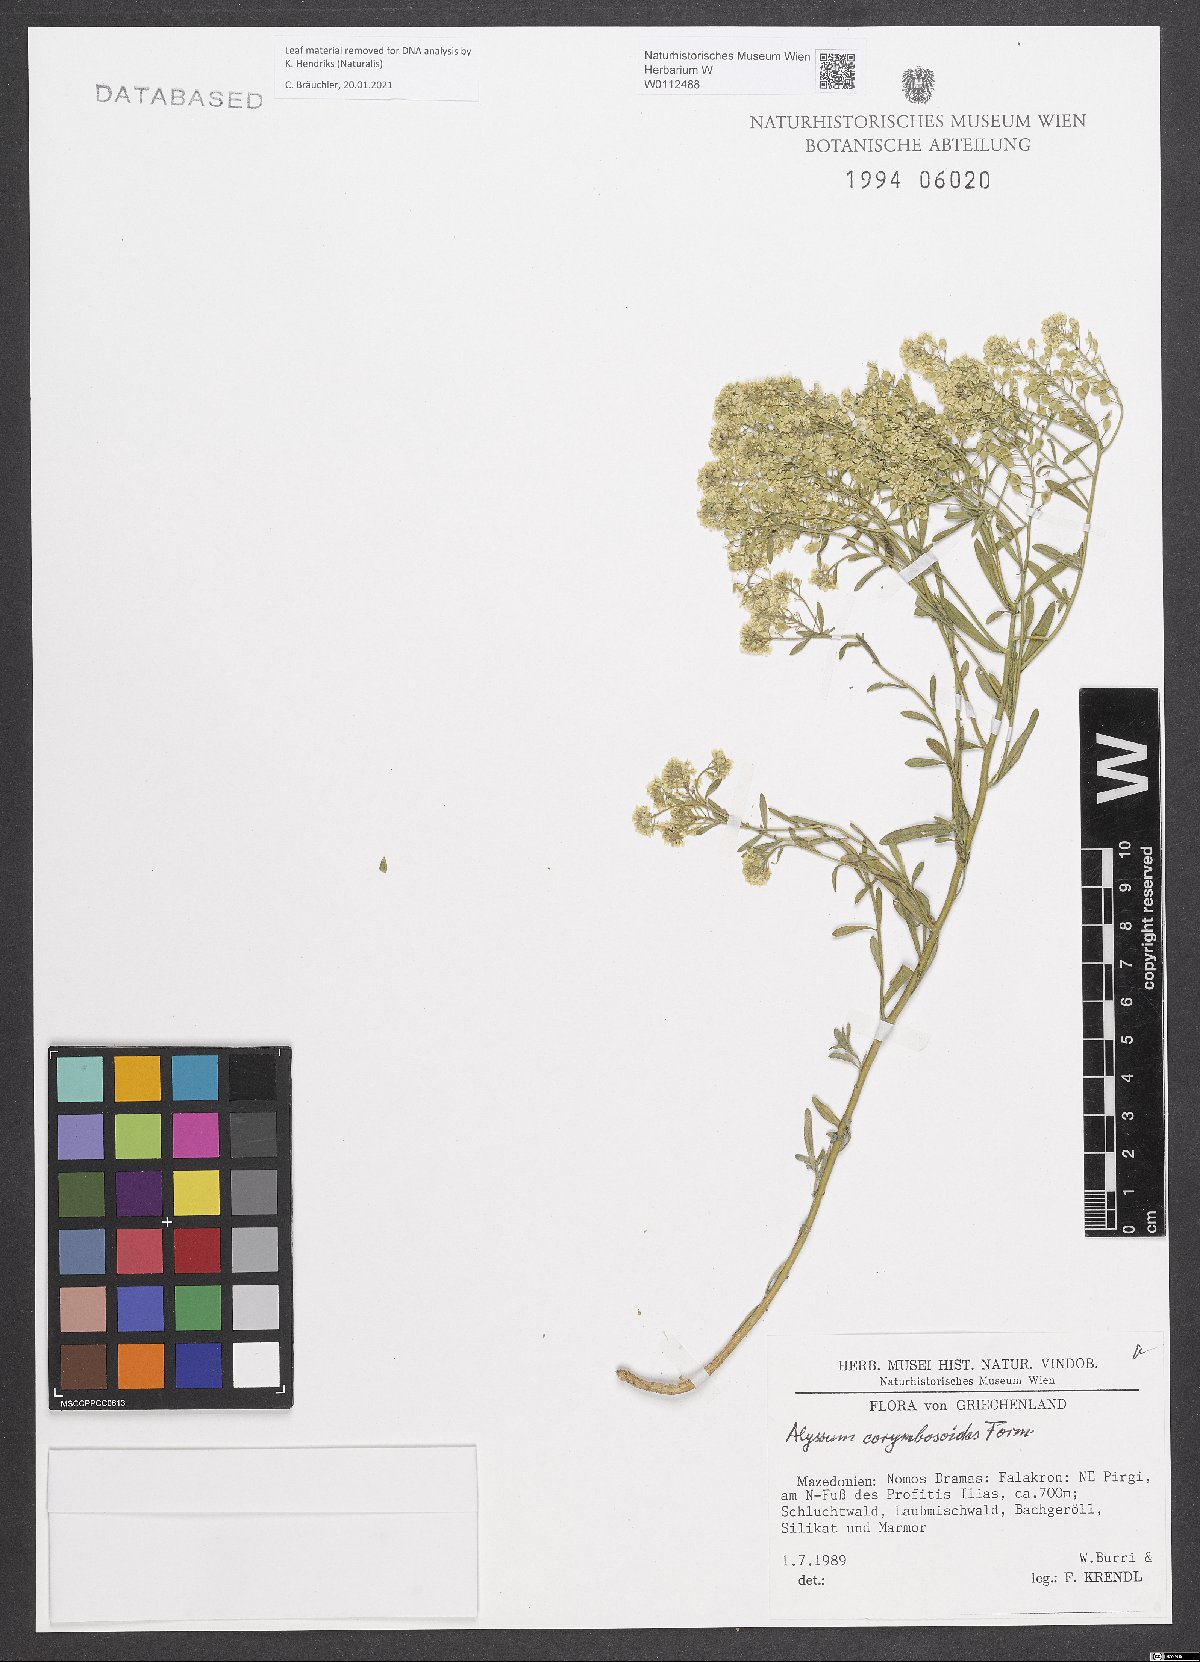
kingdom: Plantae
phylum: Tracheophyta
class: Magnoliopsida
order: Brassicales
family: Brassicaceae
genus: Odontarrhena
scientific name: Odontarrhena corymbosoidea
